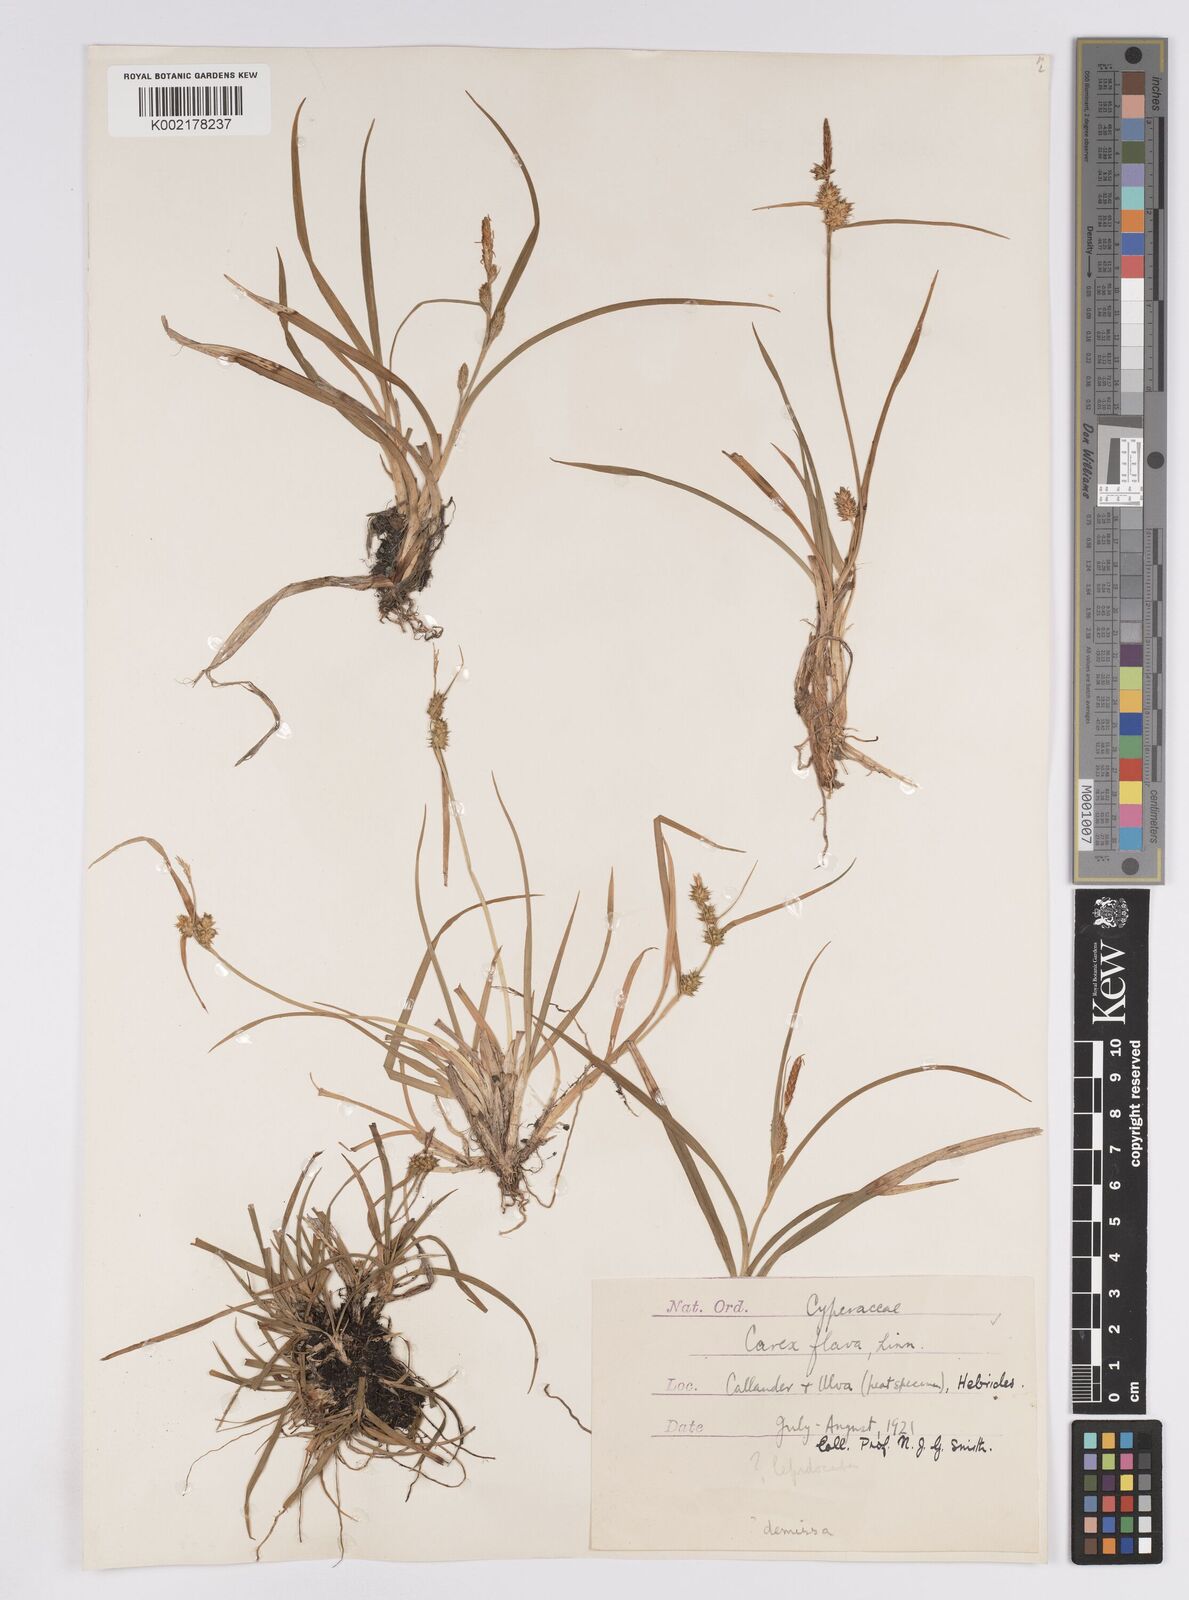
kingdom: Plantae
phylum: Tracheophyta
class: Liliopsida
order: Poales
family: Cyperaceae
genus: Carex
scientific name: Carex demissa
